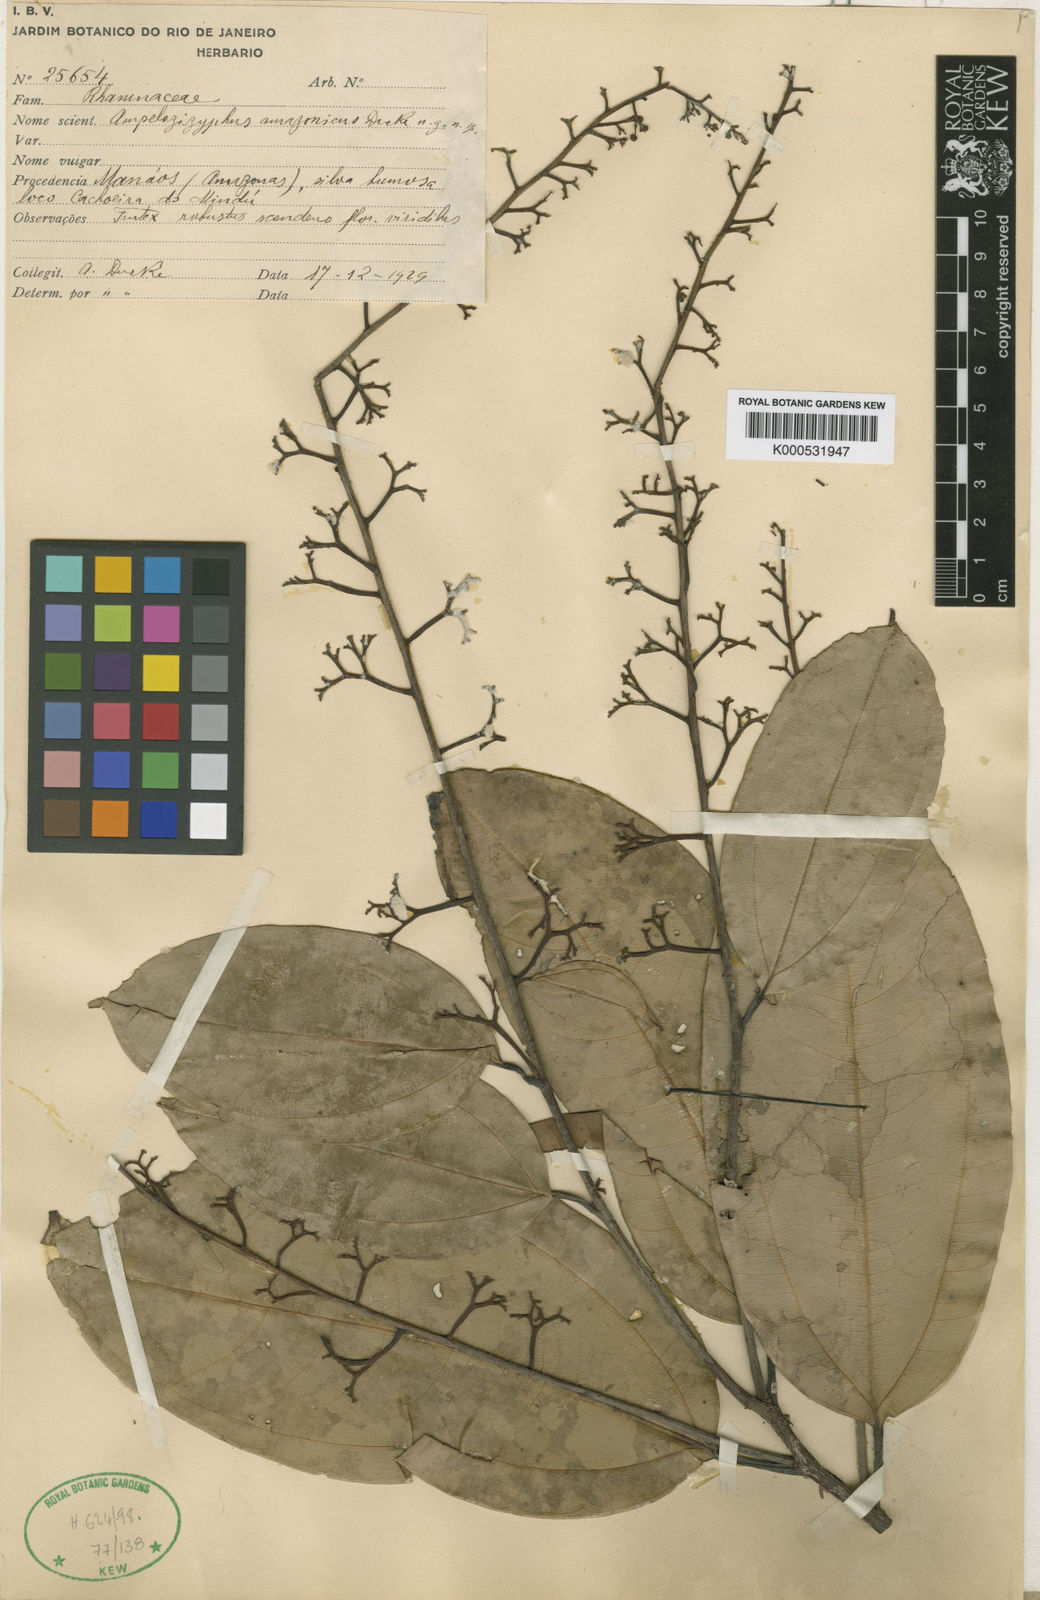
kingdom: Plantae
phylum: Tracheophyta
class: Magnoliopsida
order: Rosales
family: Rhamnaceae
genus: Ampelozizyphus
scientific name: Ampelozizyphus amazonicus
